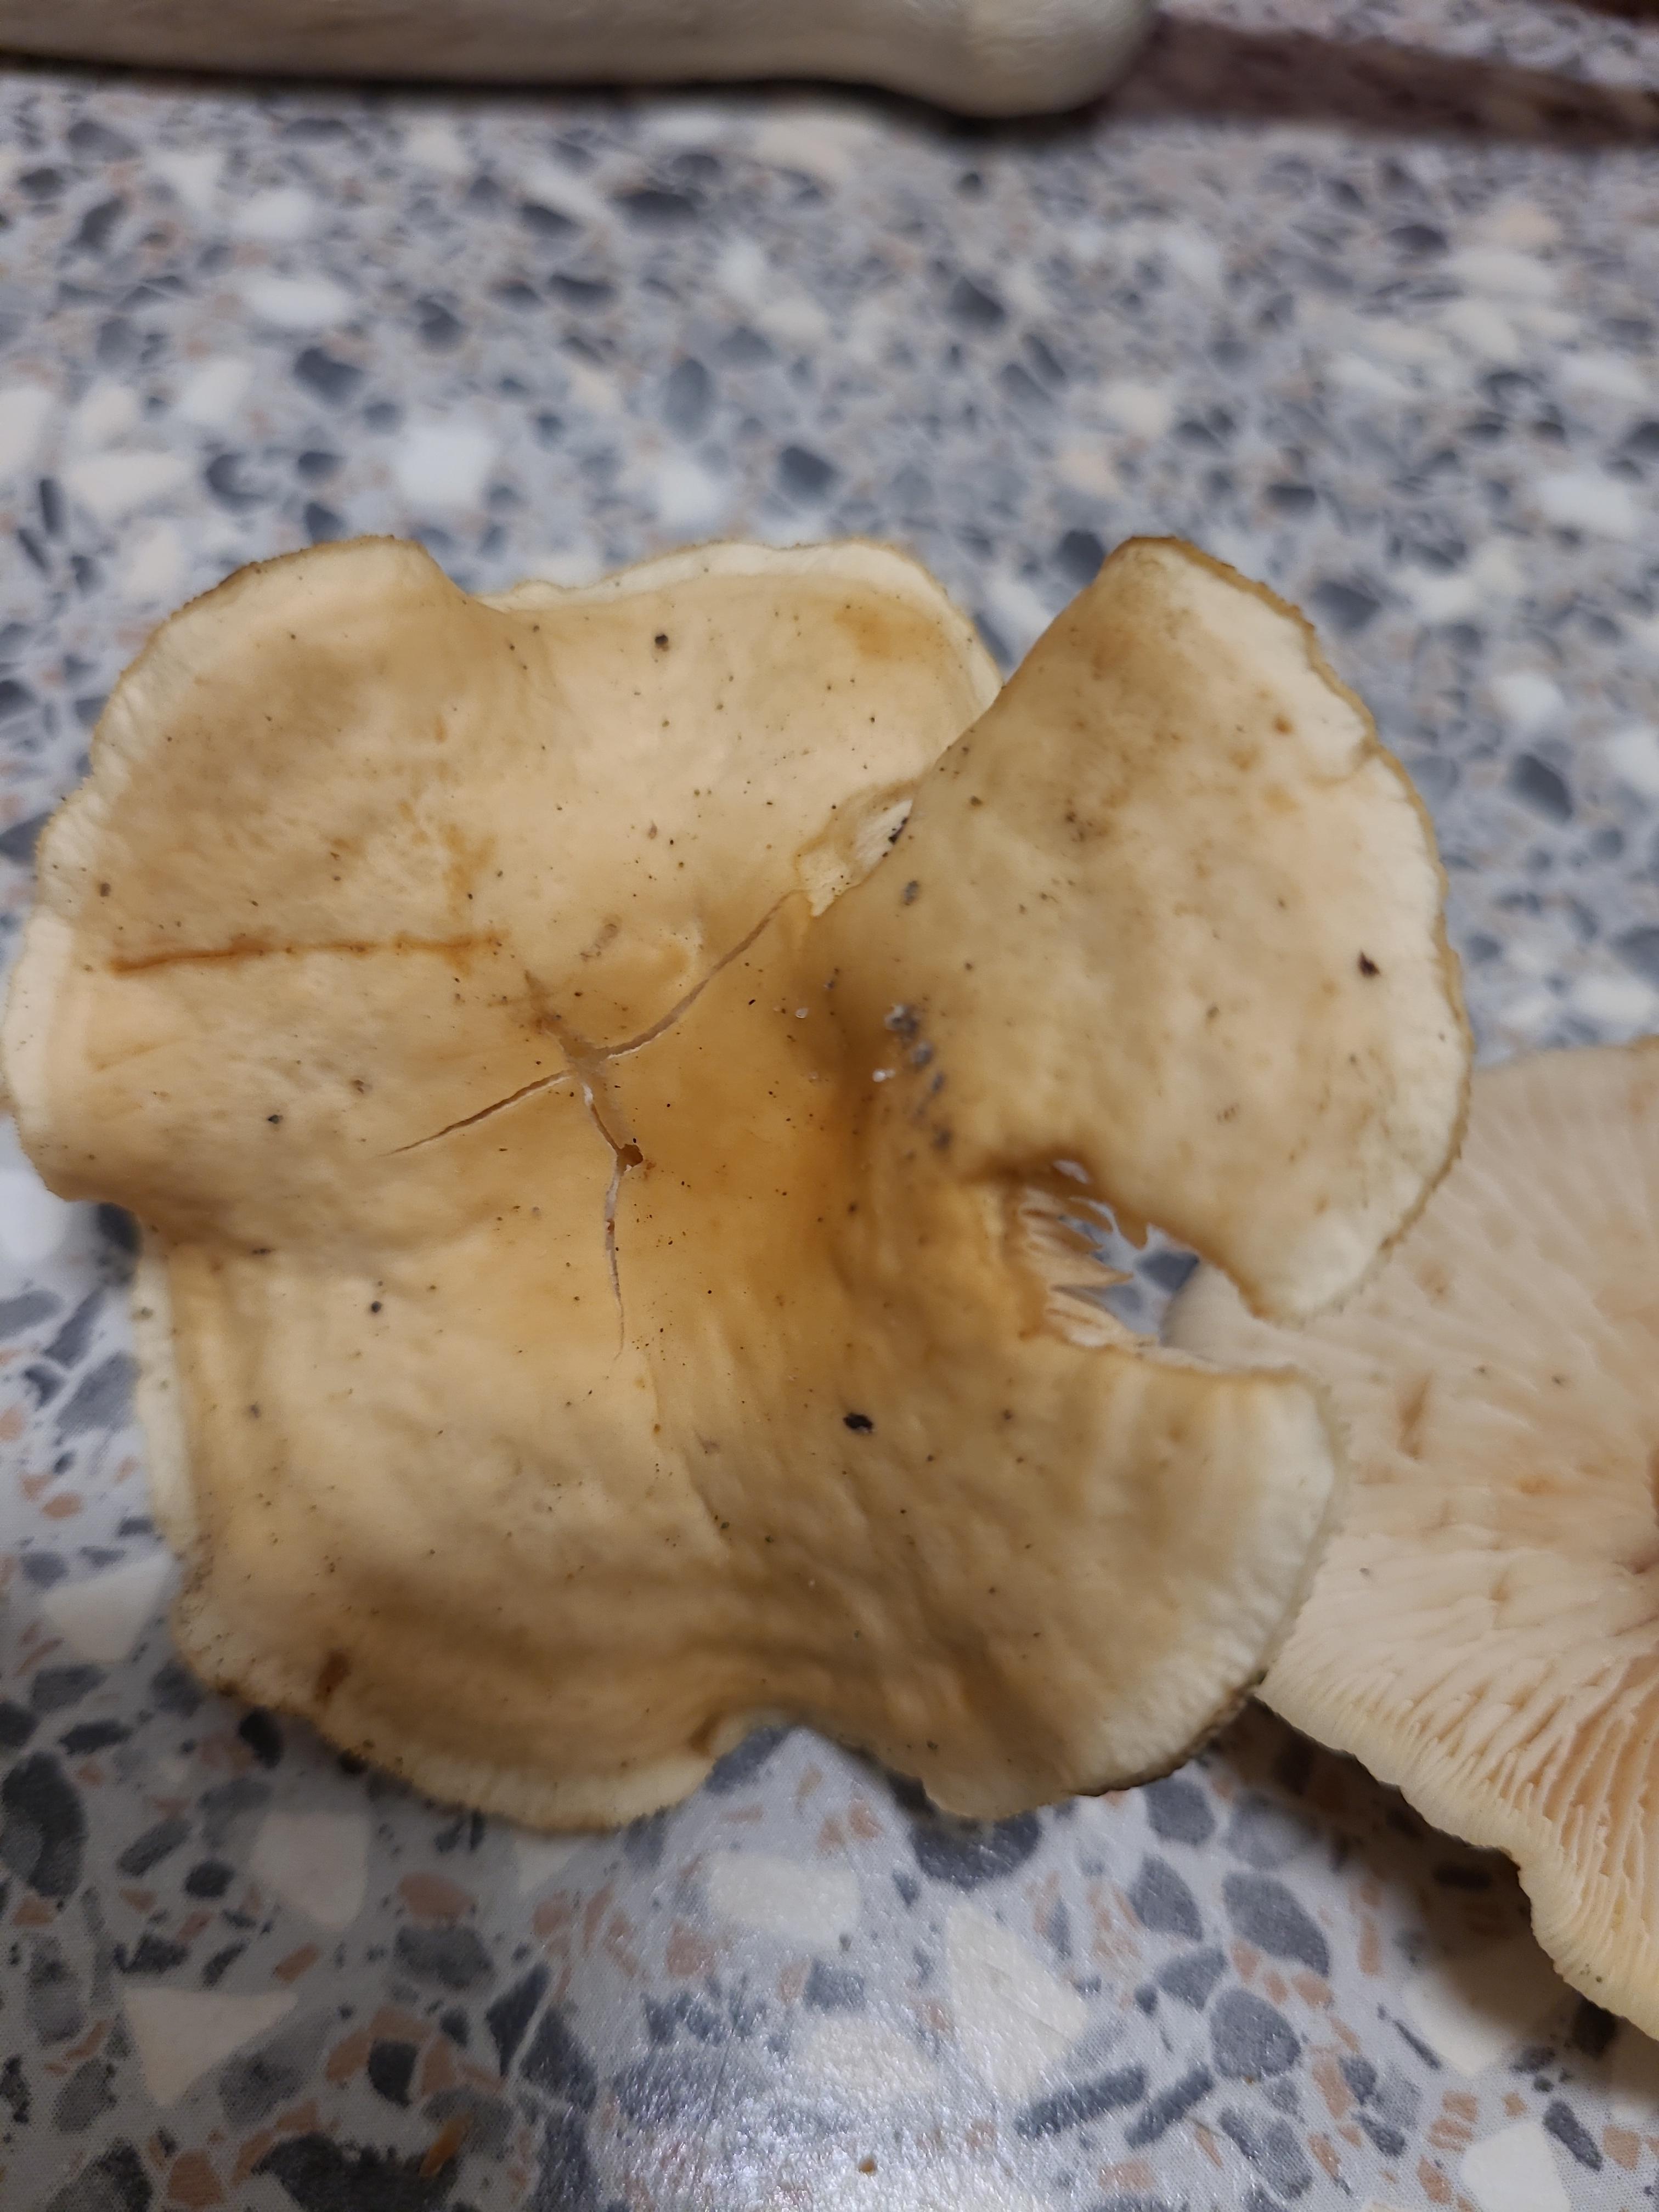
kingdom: Fungi
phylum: Basidiomycota
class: Agaricomycetes
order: Agaricales
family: Omphalotaceae
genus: Gymnopus
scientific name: Gymnopus
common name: fladhat
